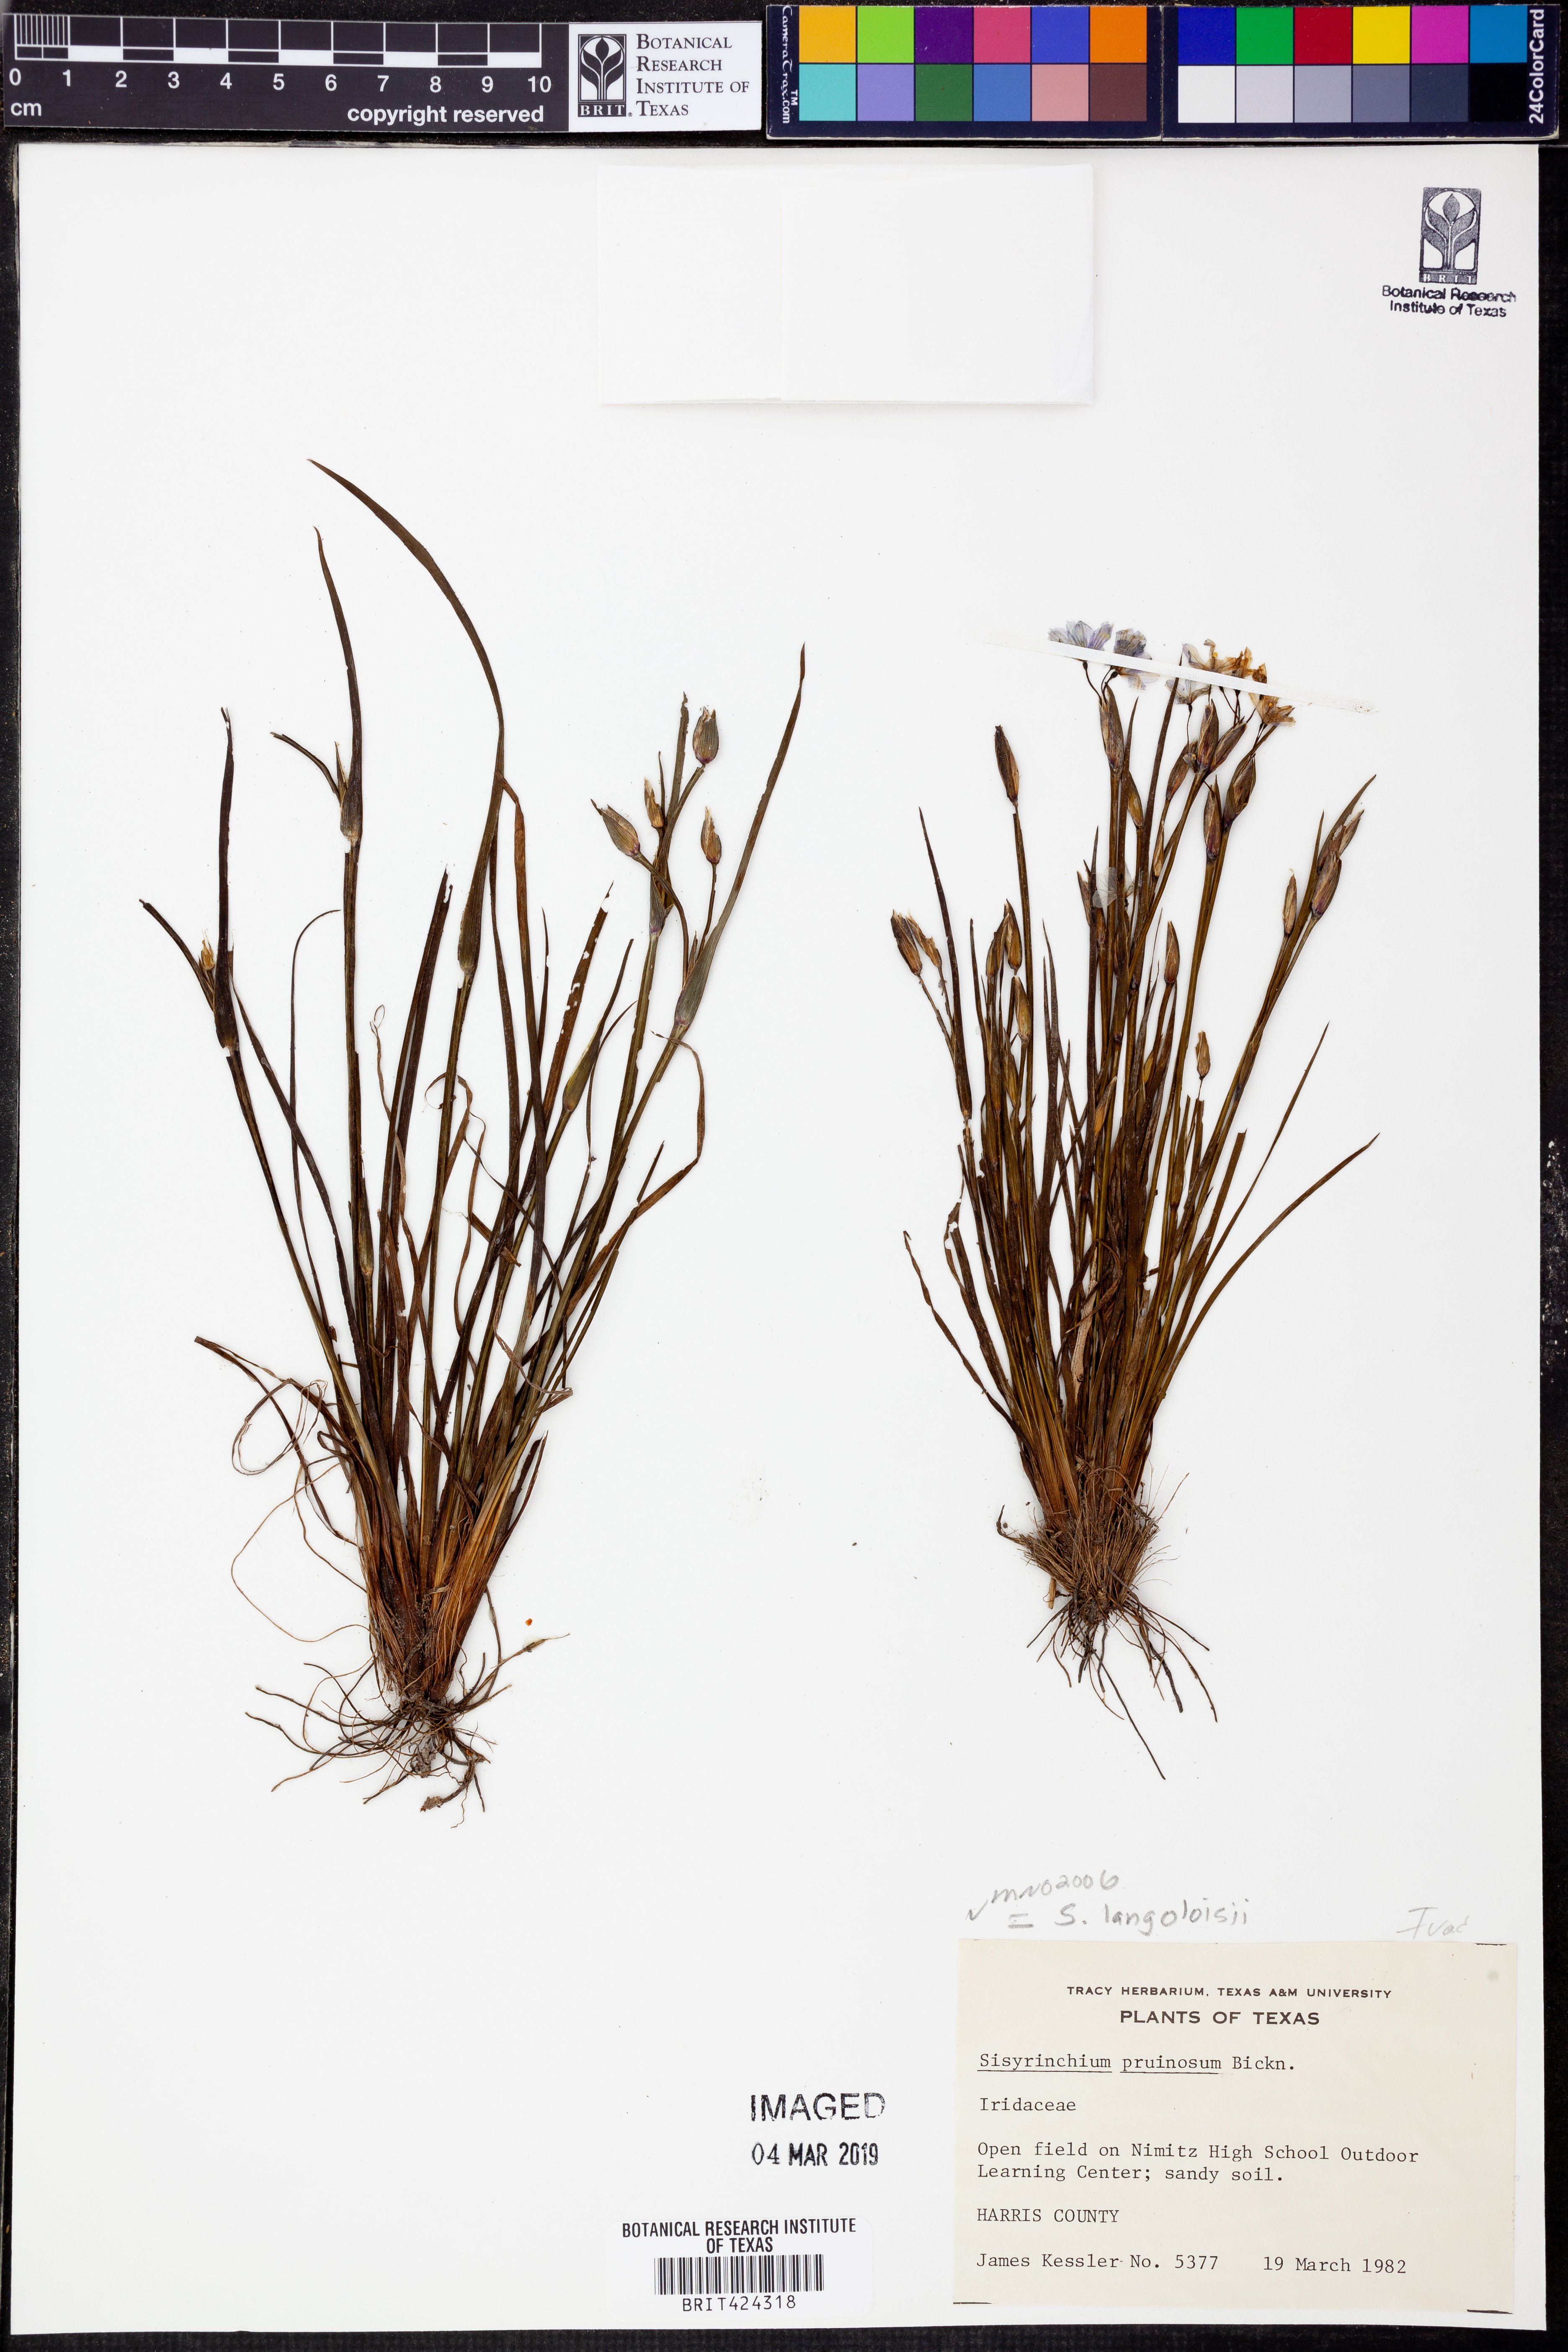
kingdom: Plantae
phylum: Tracheophyta
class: Liliopsida
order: Asparagales
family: Iridaceae
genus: Sisyrinchium
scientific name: Sisyrinchium langloisii
